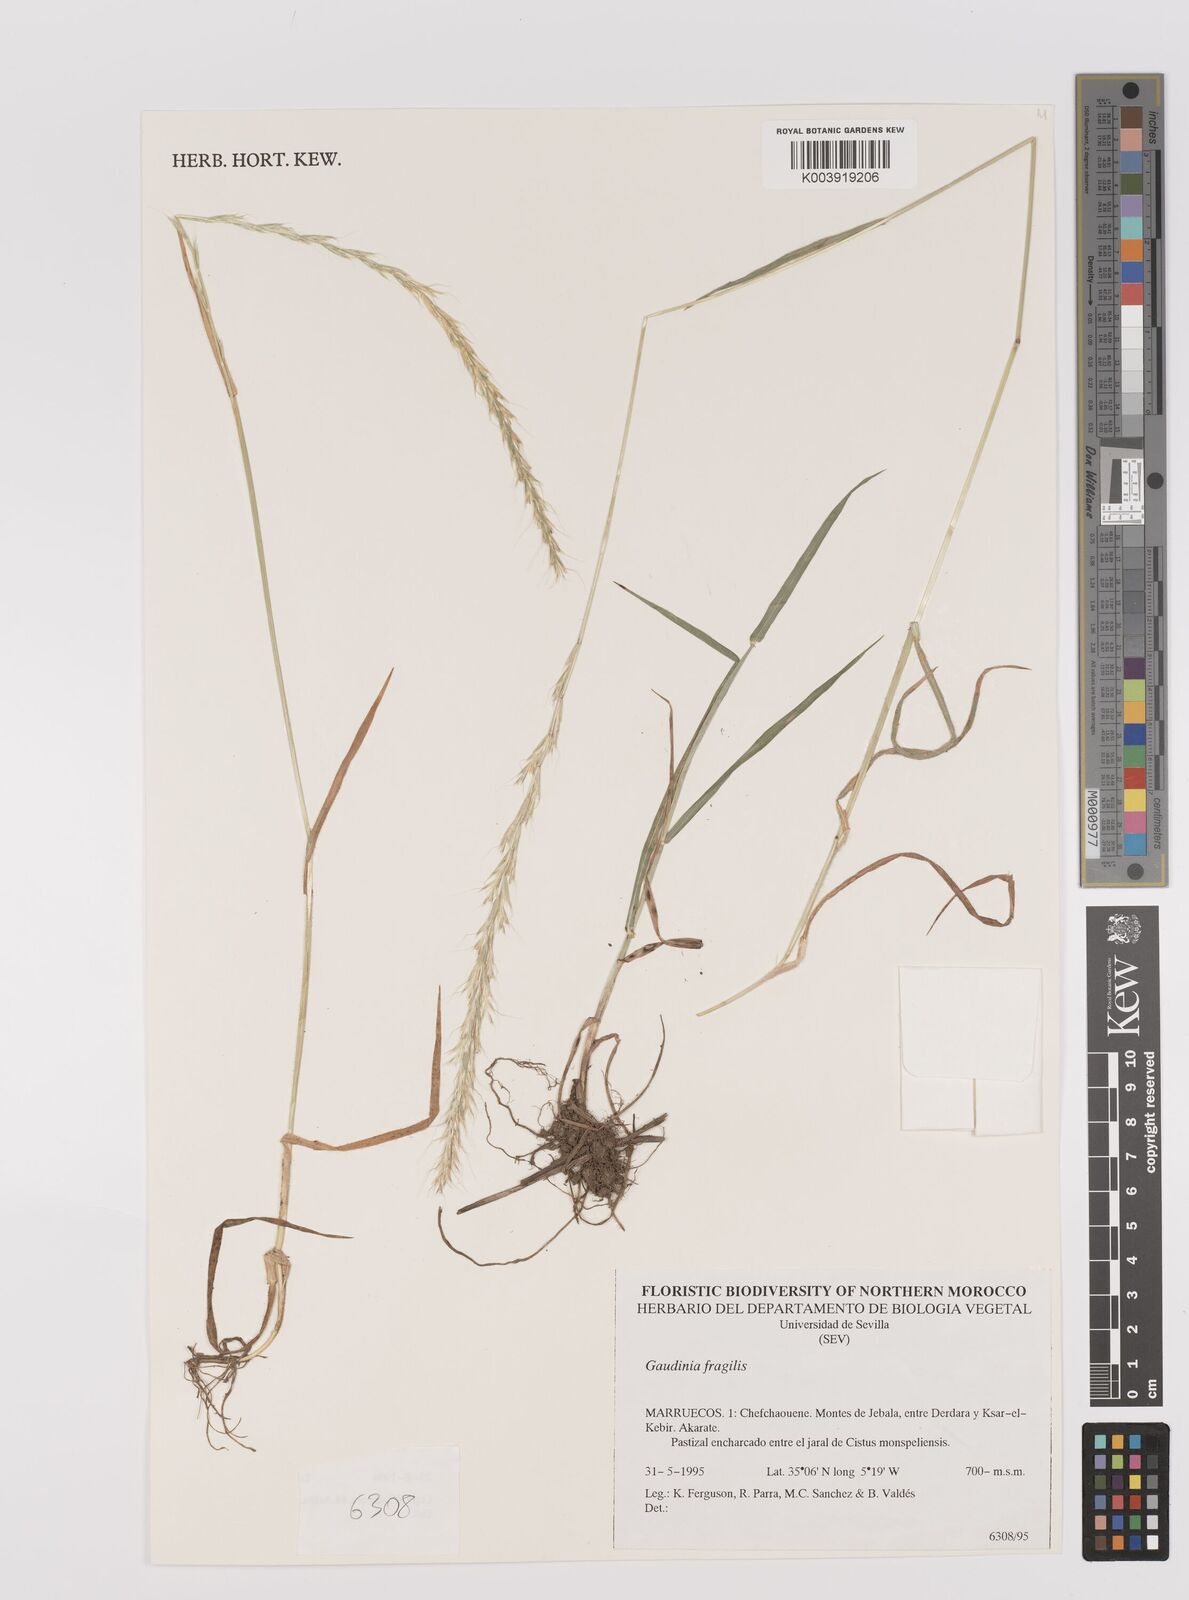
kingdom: Plantae
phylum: Tracheophyta
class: Liliopsida
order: Poales
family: Poaceae
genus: Gaudinia
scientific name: Gaudinia fragilis
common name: French oat-grass
